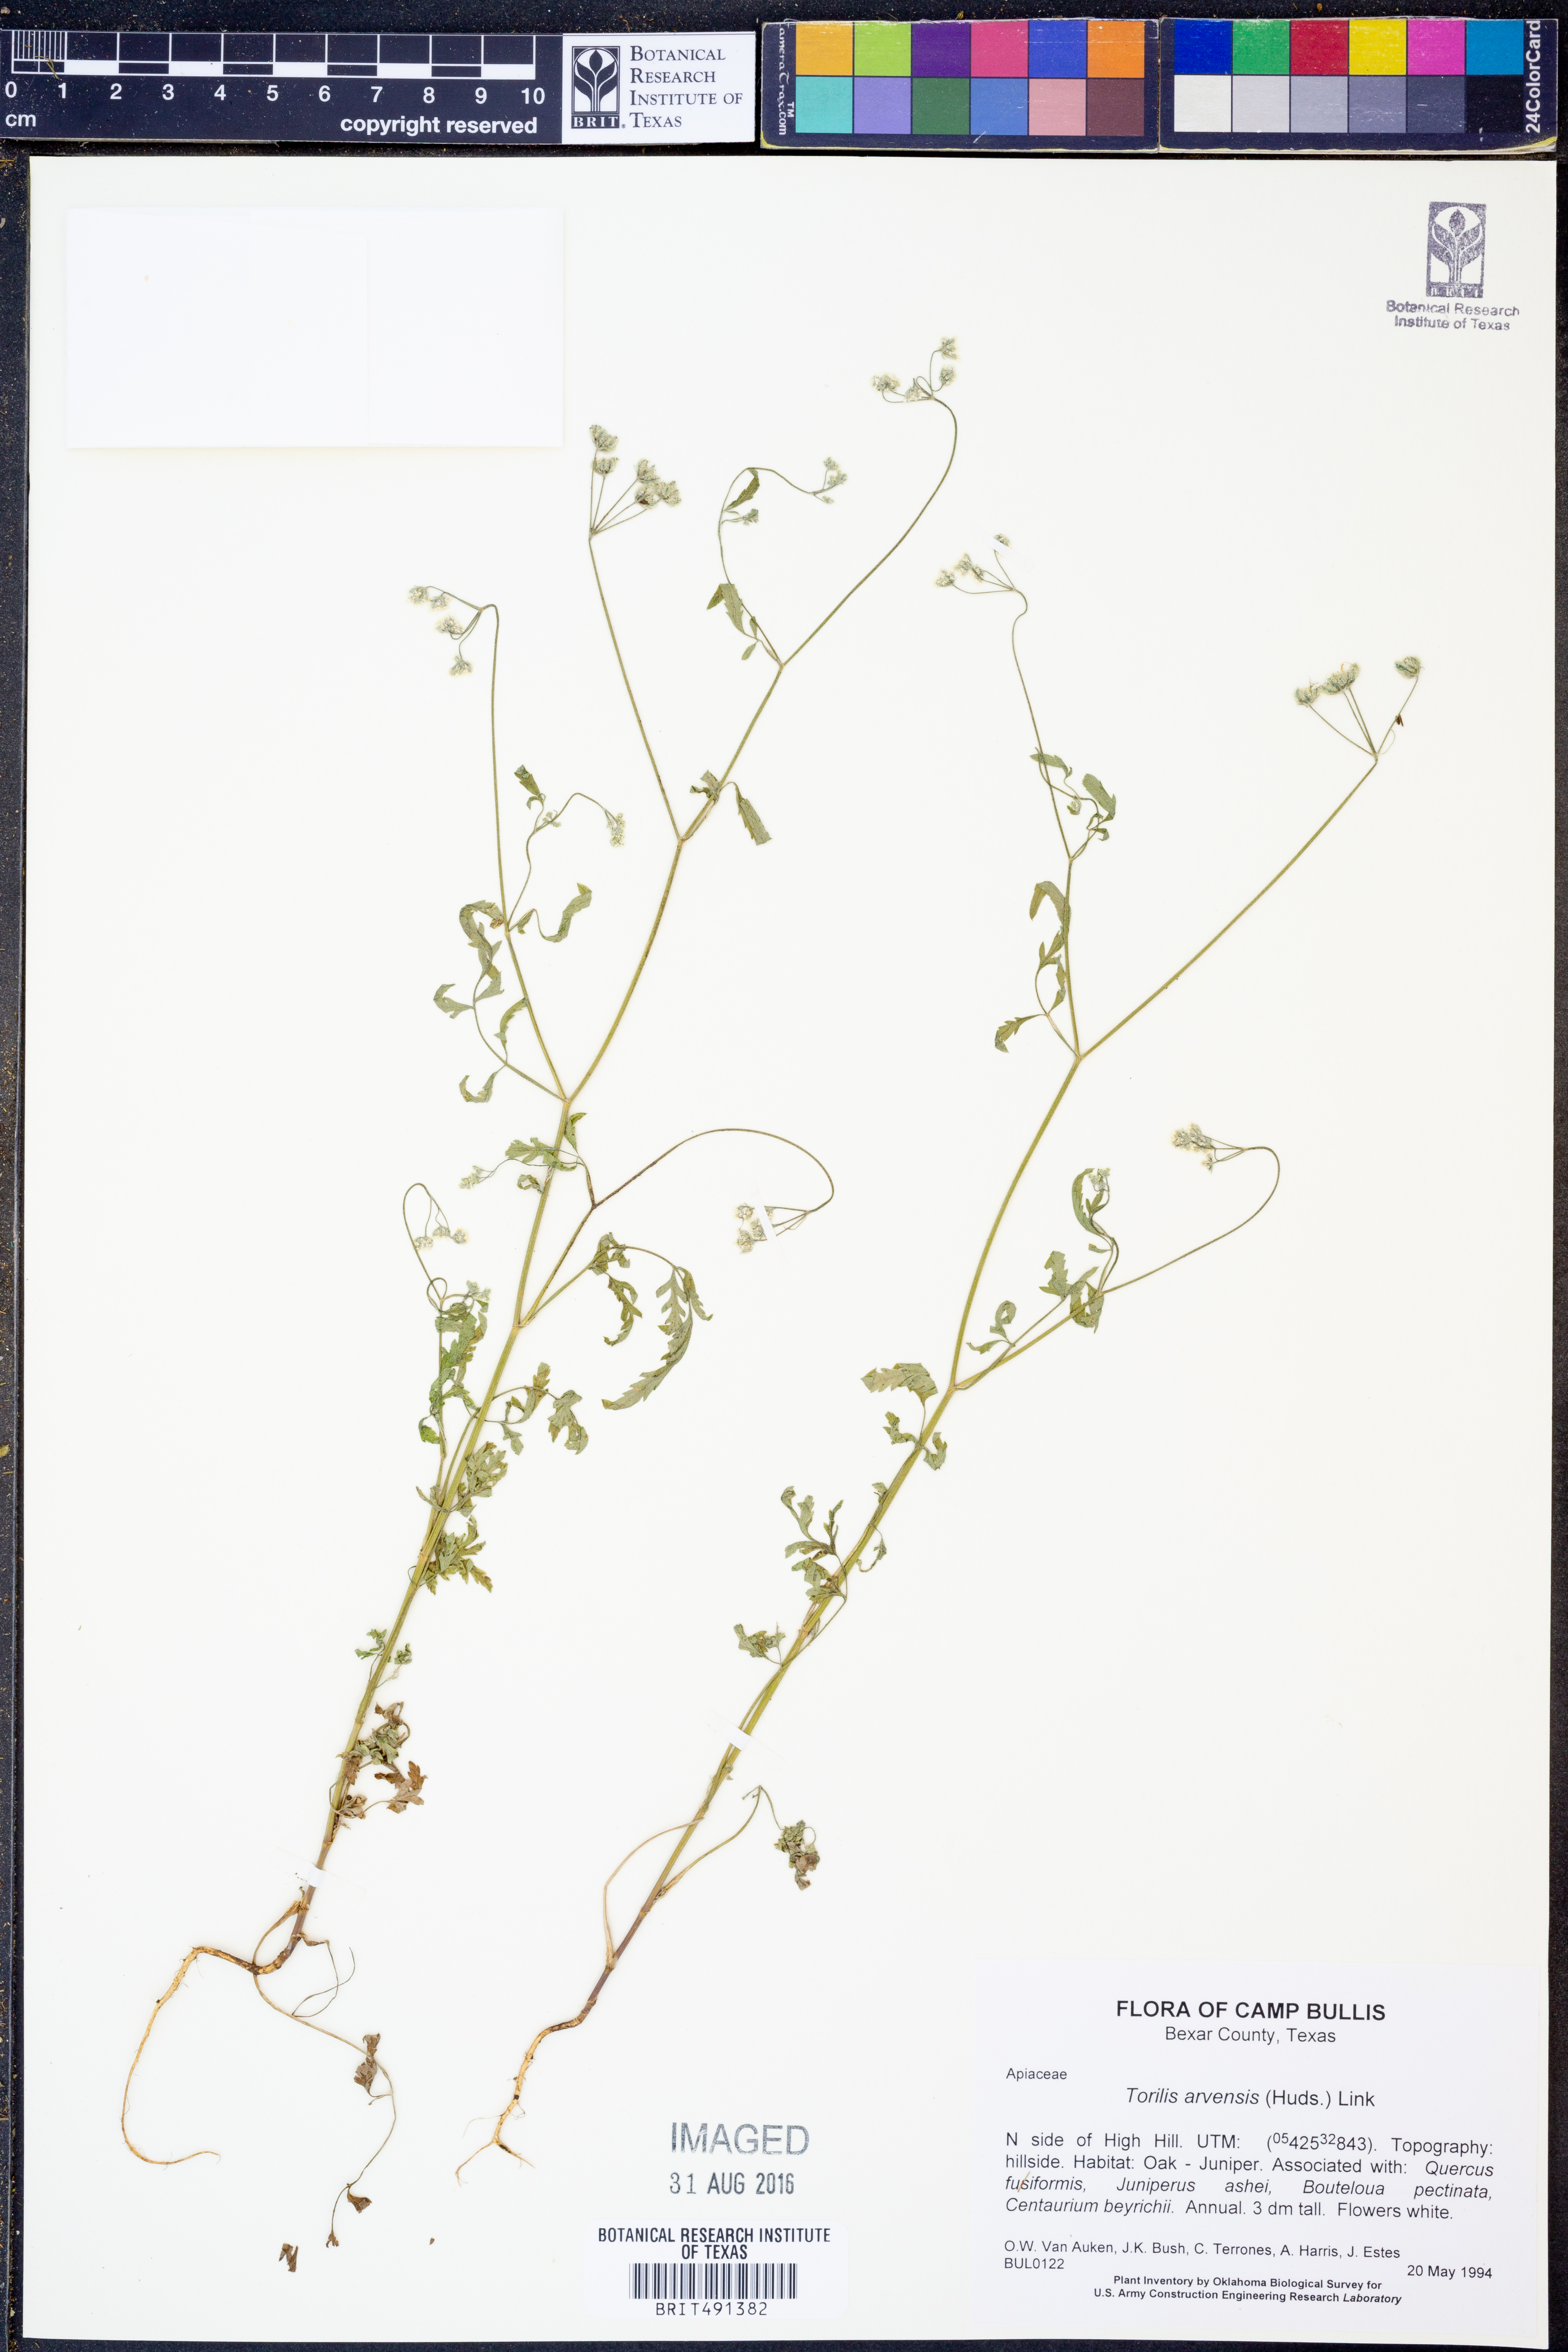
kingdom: Plantae
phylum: Tracheophyta
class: Magnoliopsida
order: Apiales
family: Apiaceae
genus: Torilis
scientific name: Torilis arvensis
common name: Spreading hedge-parsley
